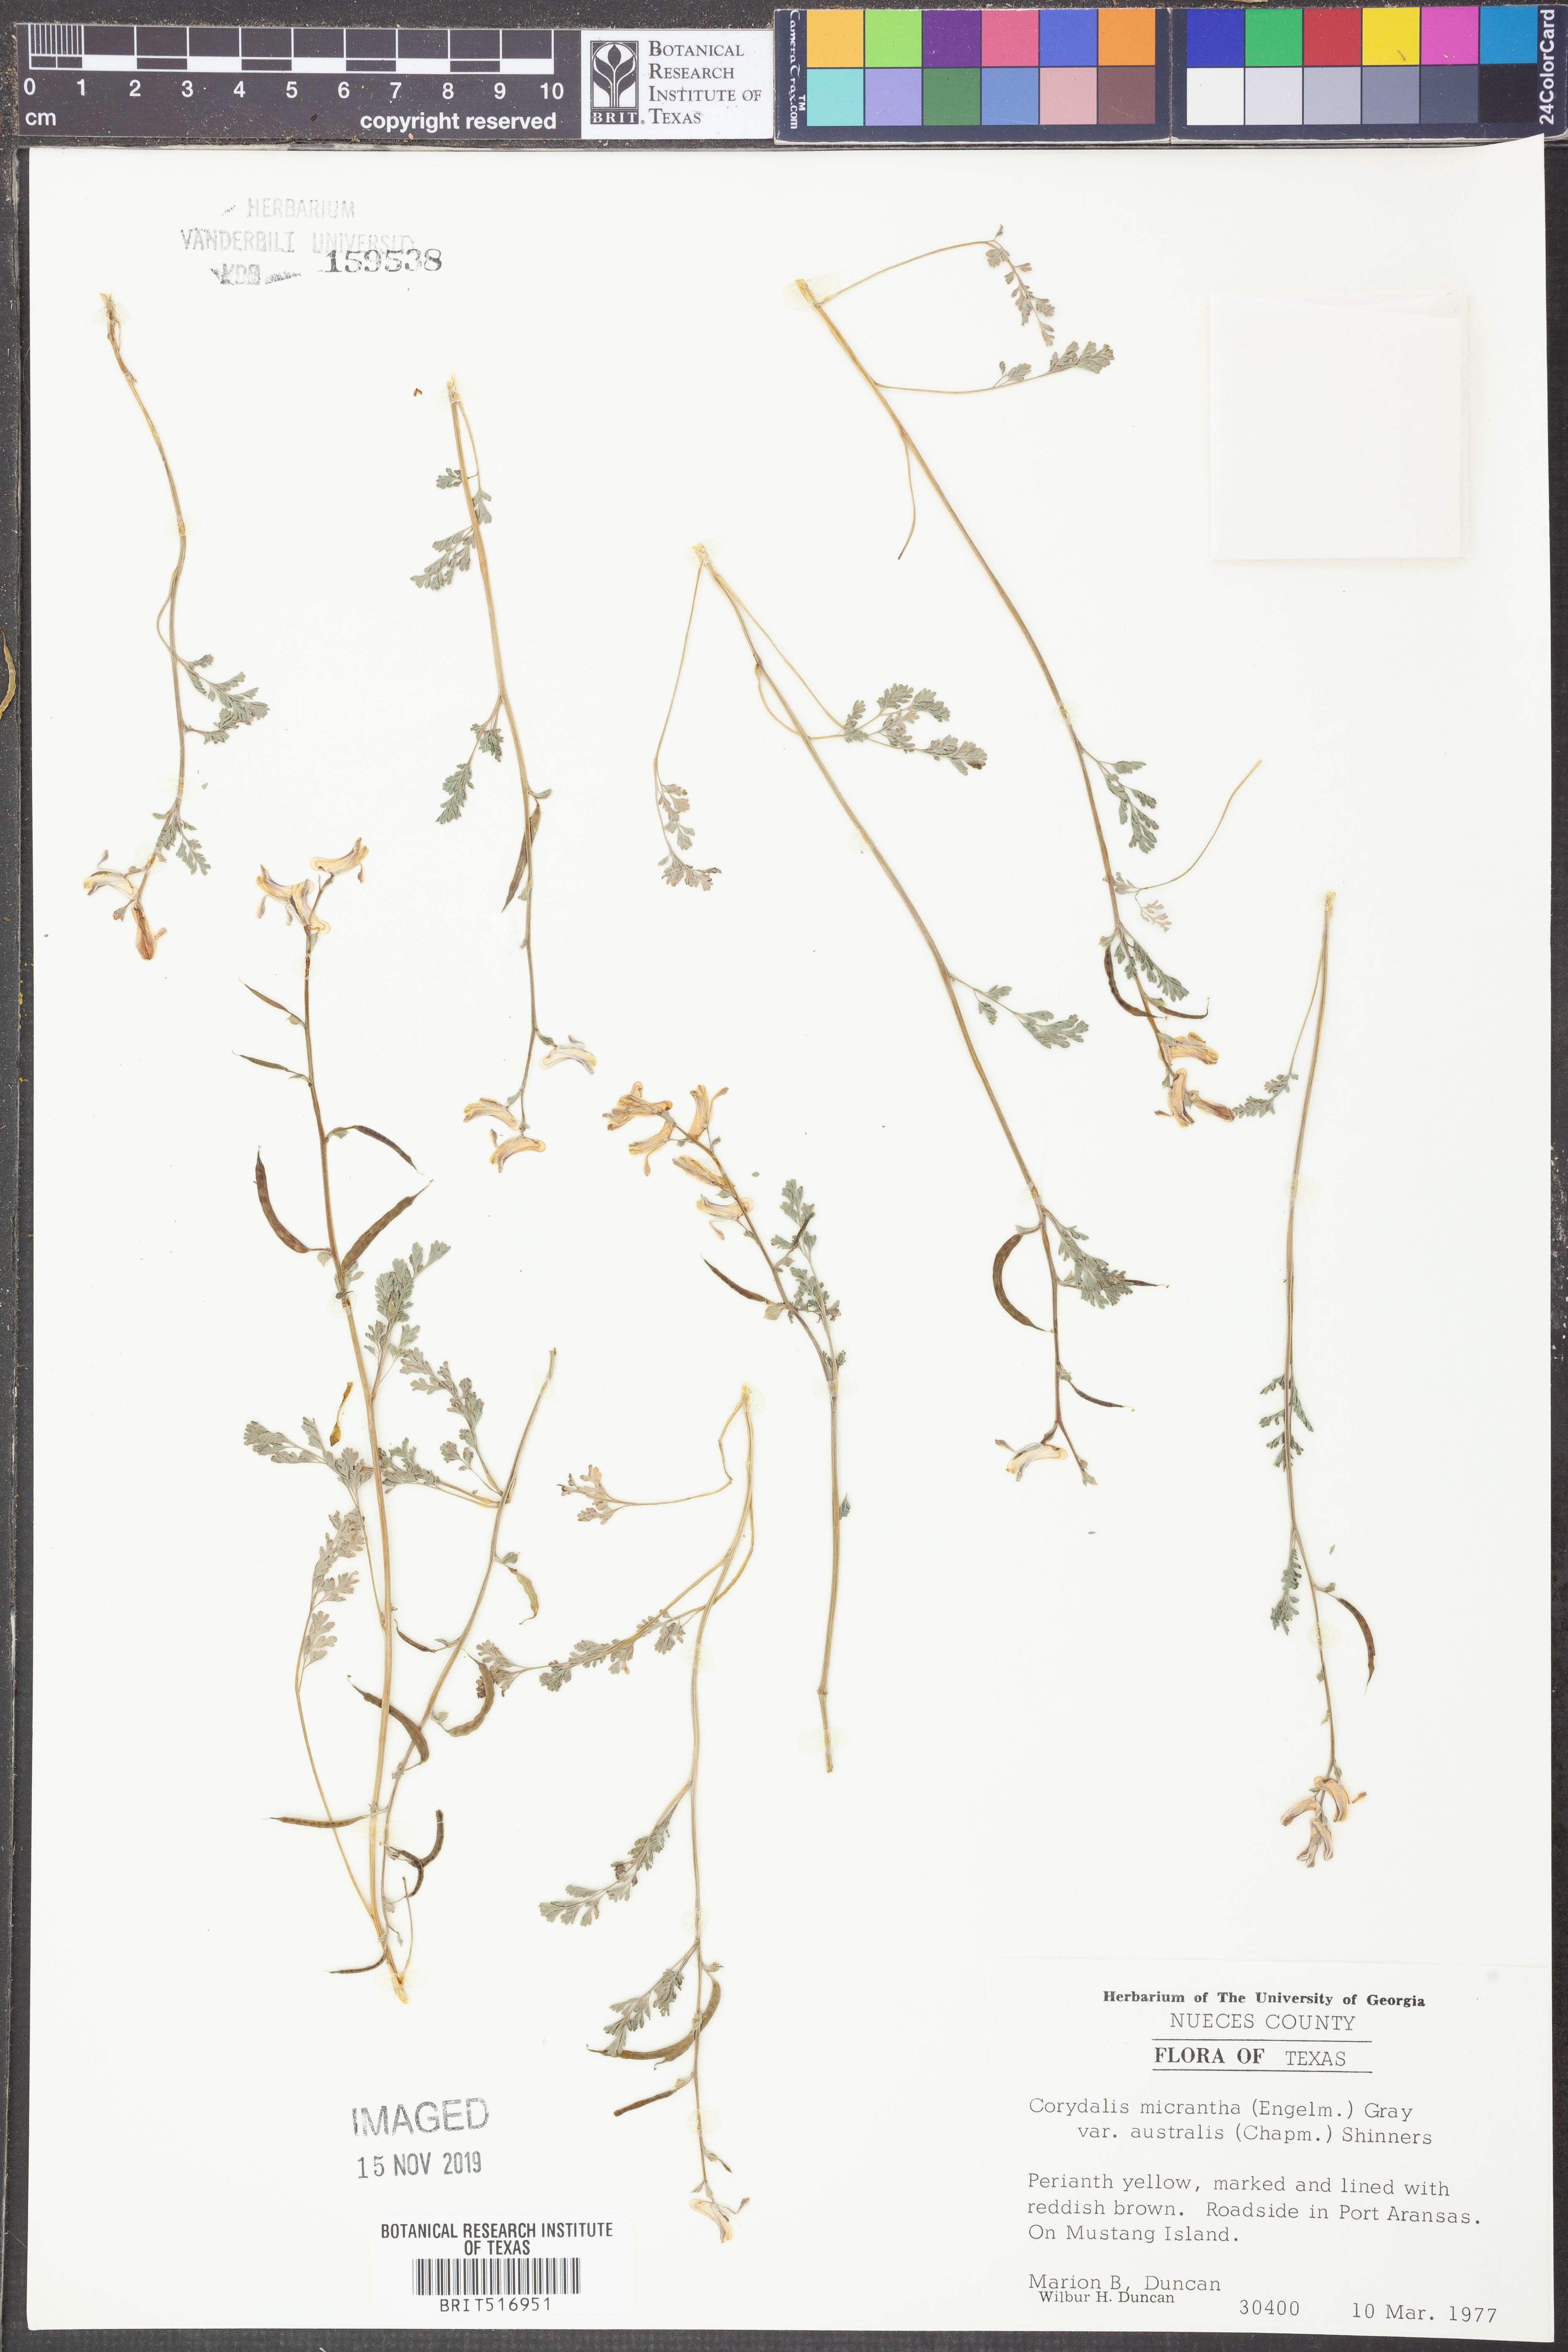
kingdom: Plantae
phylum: Tracheophyta
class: Magnoliopsida
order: Ranunculales
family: Papaveraceae
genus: Corydalis
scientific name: Corydalis micrantha
